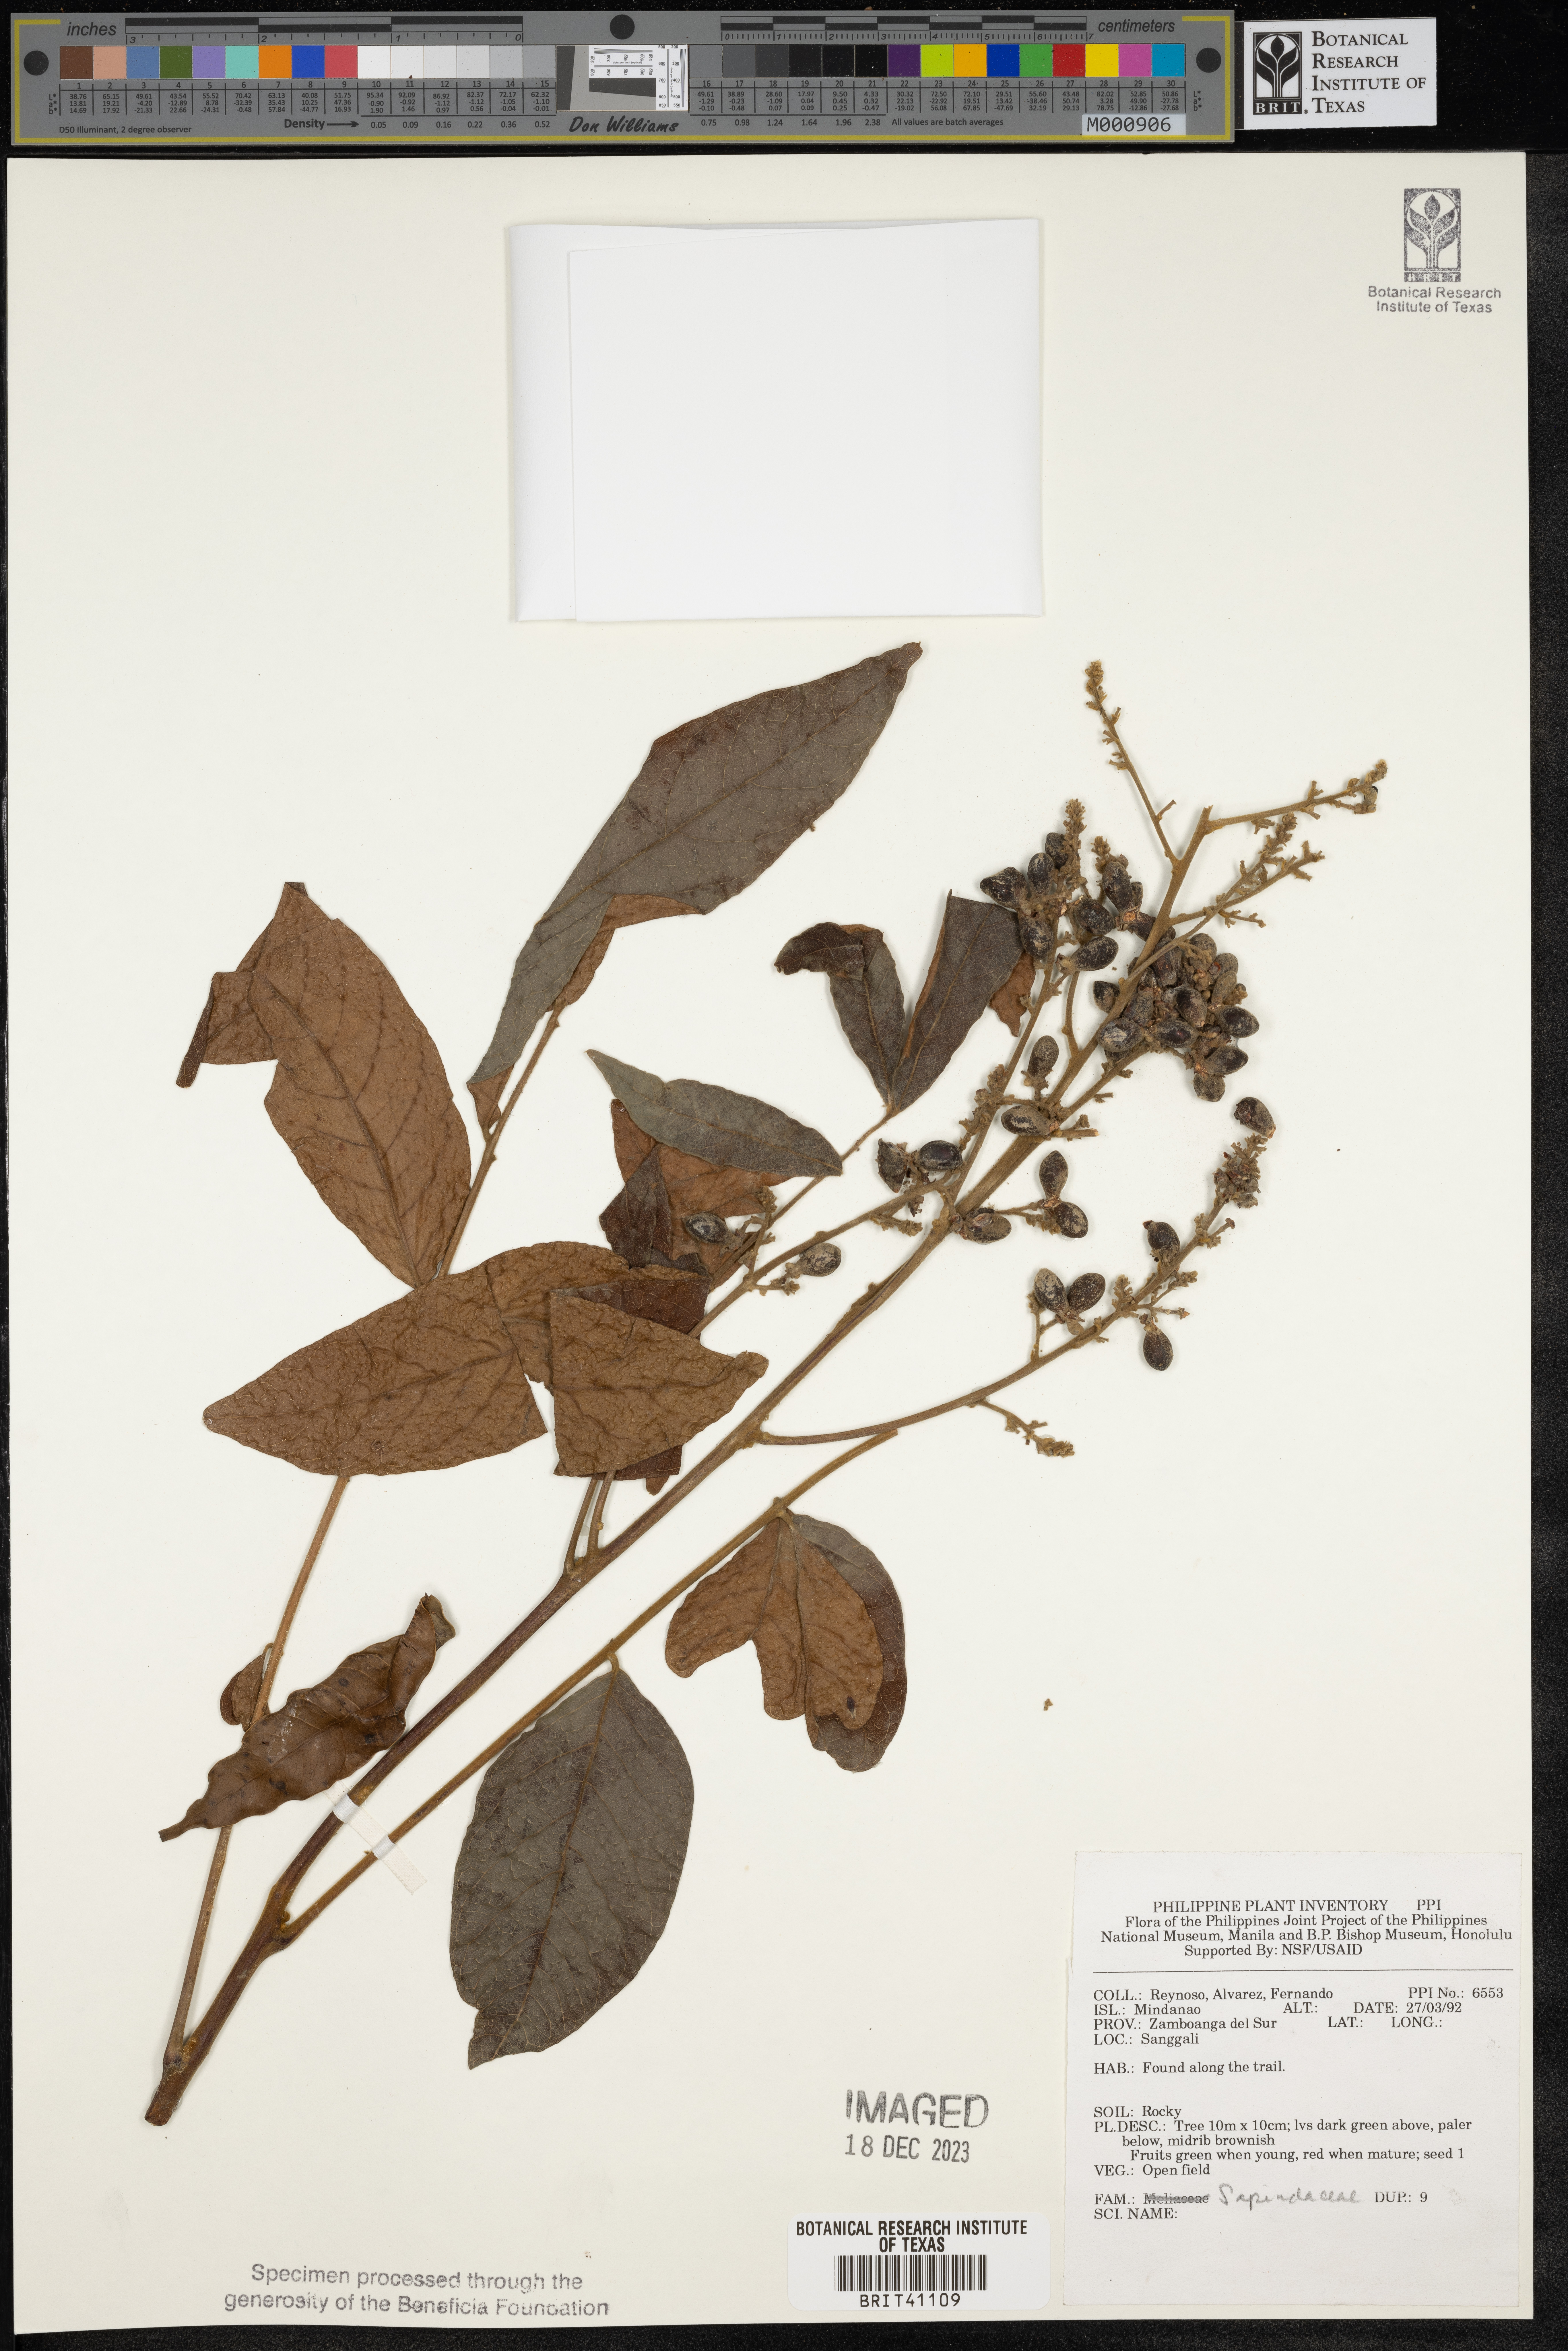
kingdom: Plantae
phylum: Tracheophyta
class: Magnoliopsida
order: Sapindales
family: Sapindaceae
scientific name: Sapindaceae
